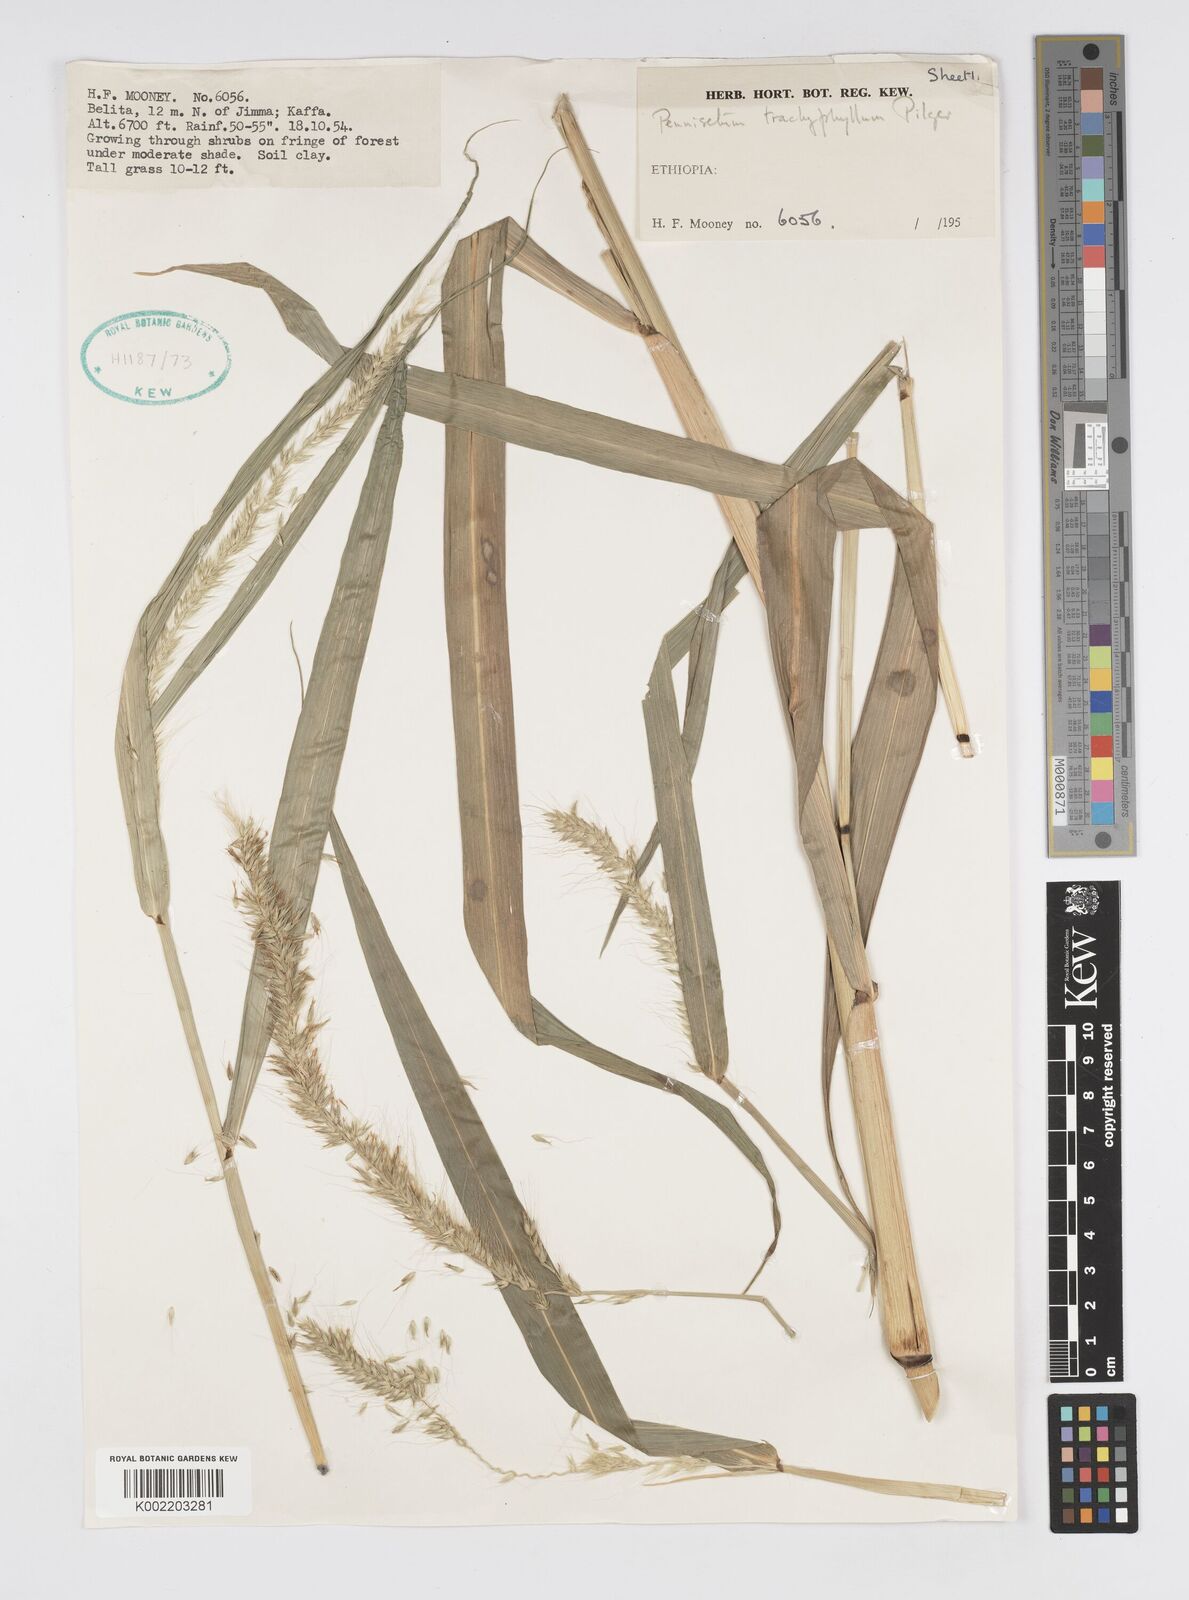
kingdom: Plantae
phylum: Tracheophyta
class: Liliopsida
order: Poales
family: Poaceae
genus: Cenchrus
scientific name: Cenchrus trachyphyllus
